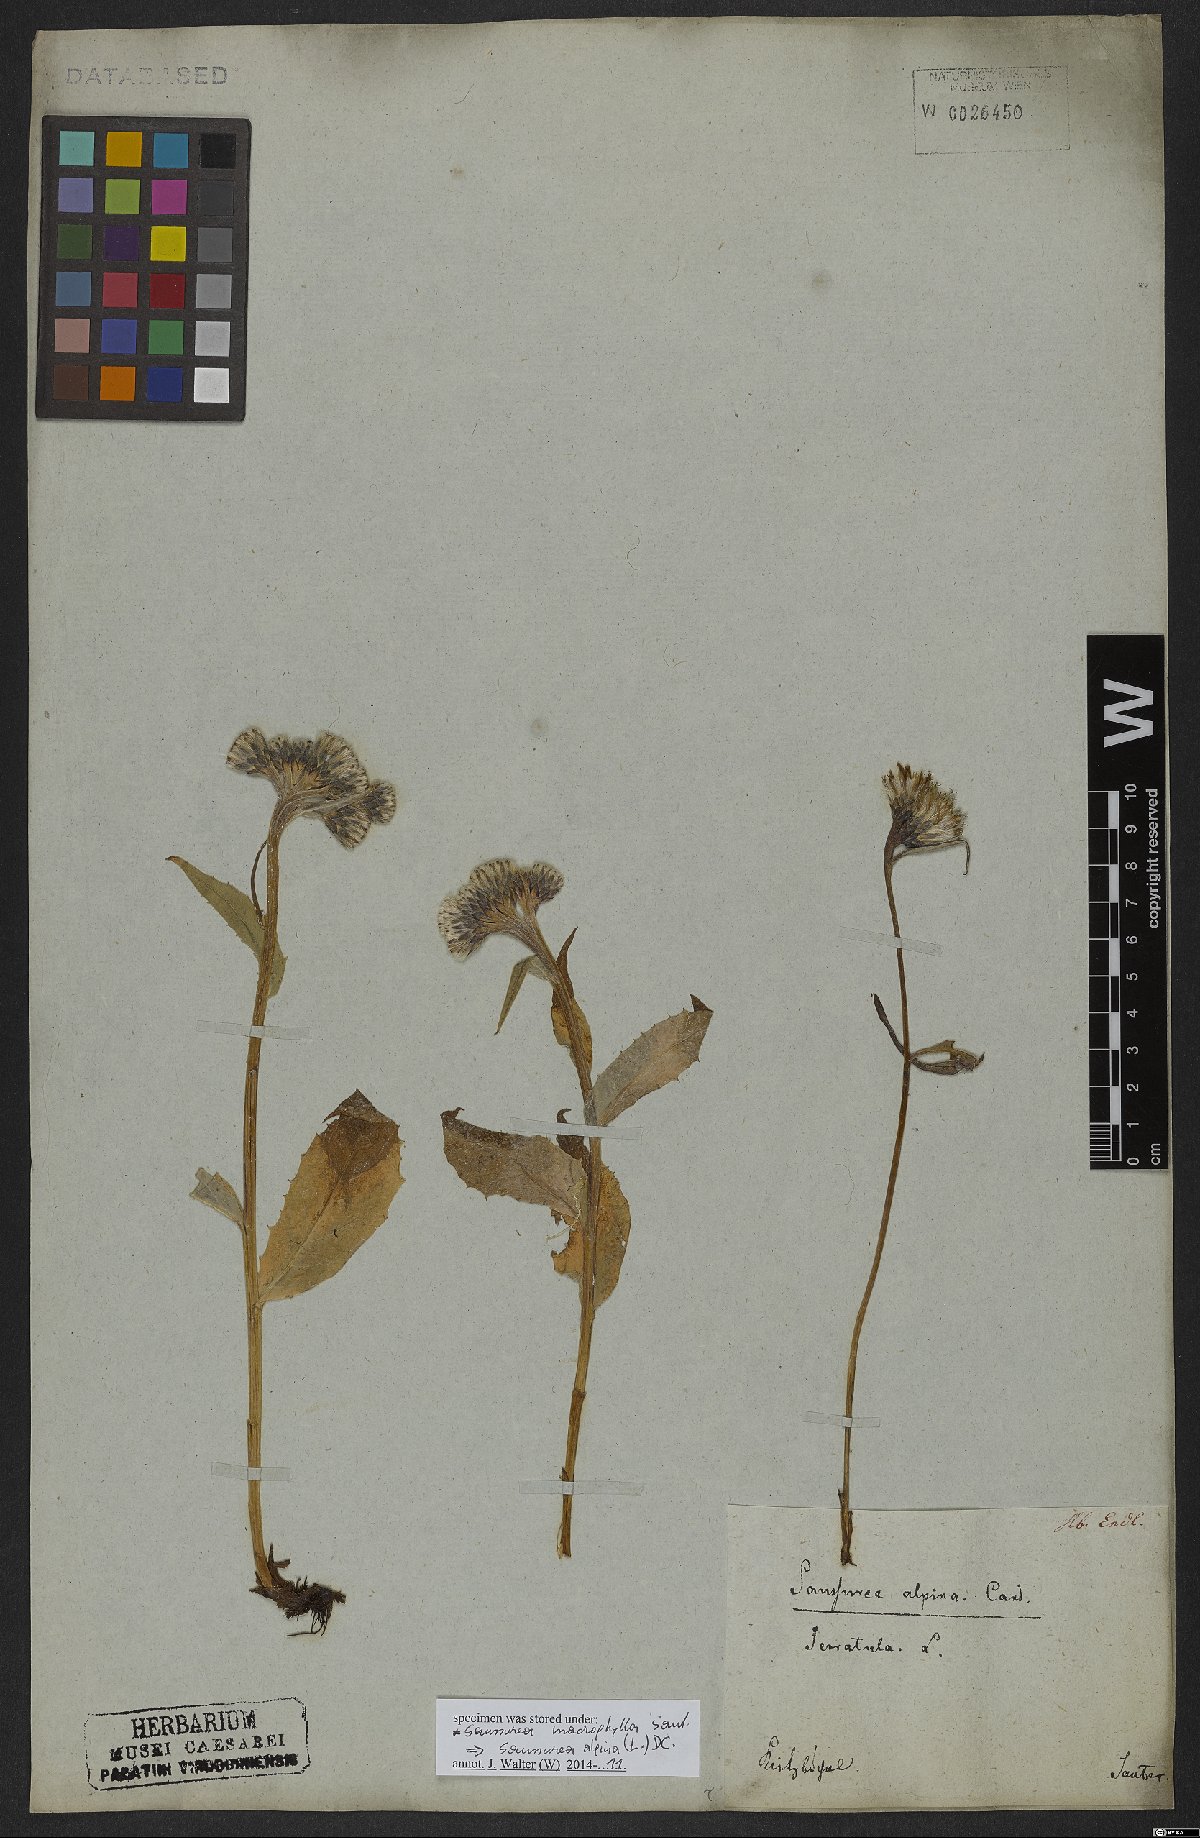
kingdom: Plantae
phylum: Tracheophyta
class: Magnoliopsida
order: Asterales
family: Asteraceae
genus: Saussurea
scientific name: Saussurea alpina
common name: Alpine saw-wort
